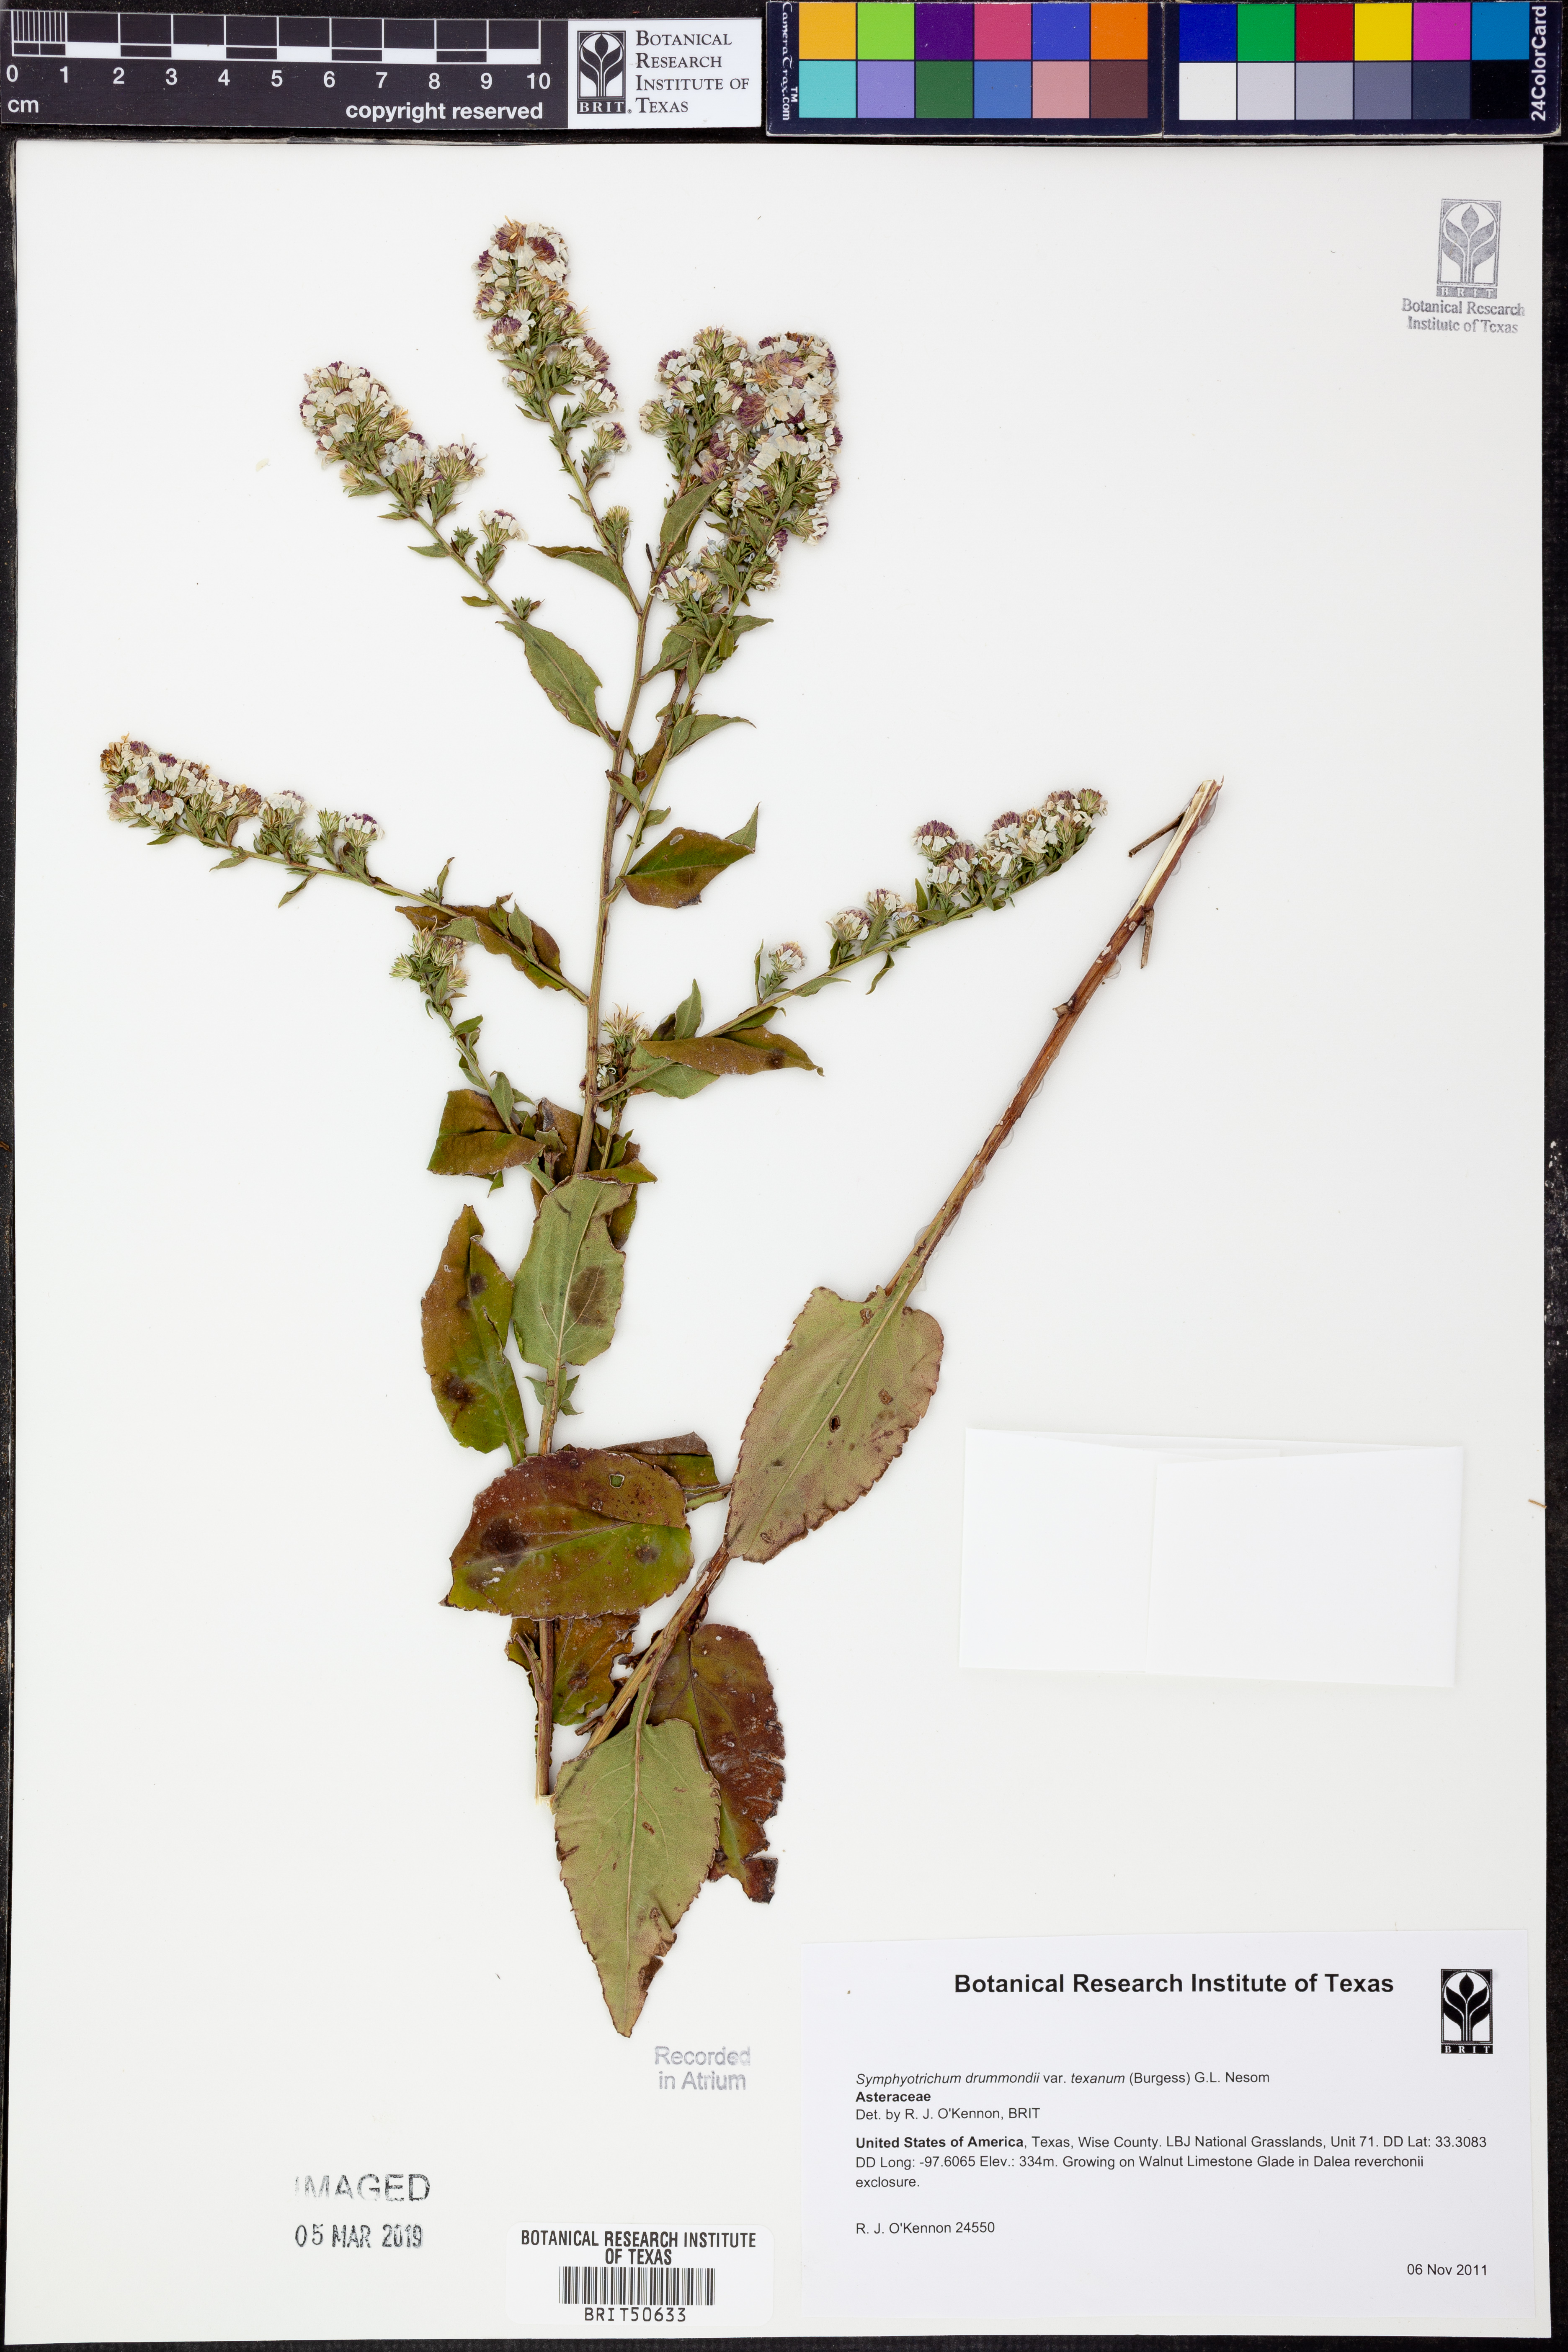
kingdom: Plantae
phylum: Tracheophyta
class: Magnoliopsida
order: Asterales
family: Asteraceae
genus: Symphyotrichum
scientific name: Symphyotrichum drummondii
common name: Drummond's aster
